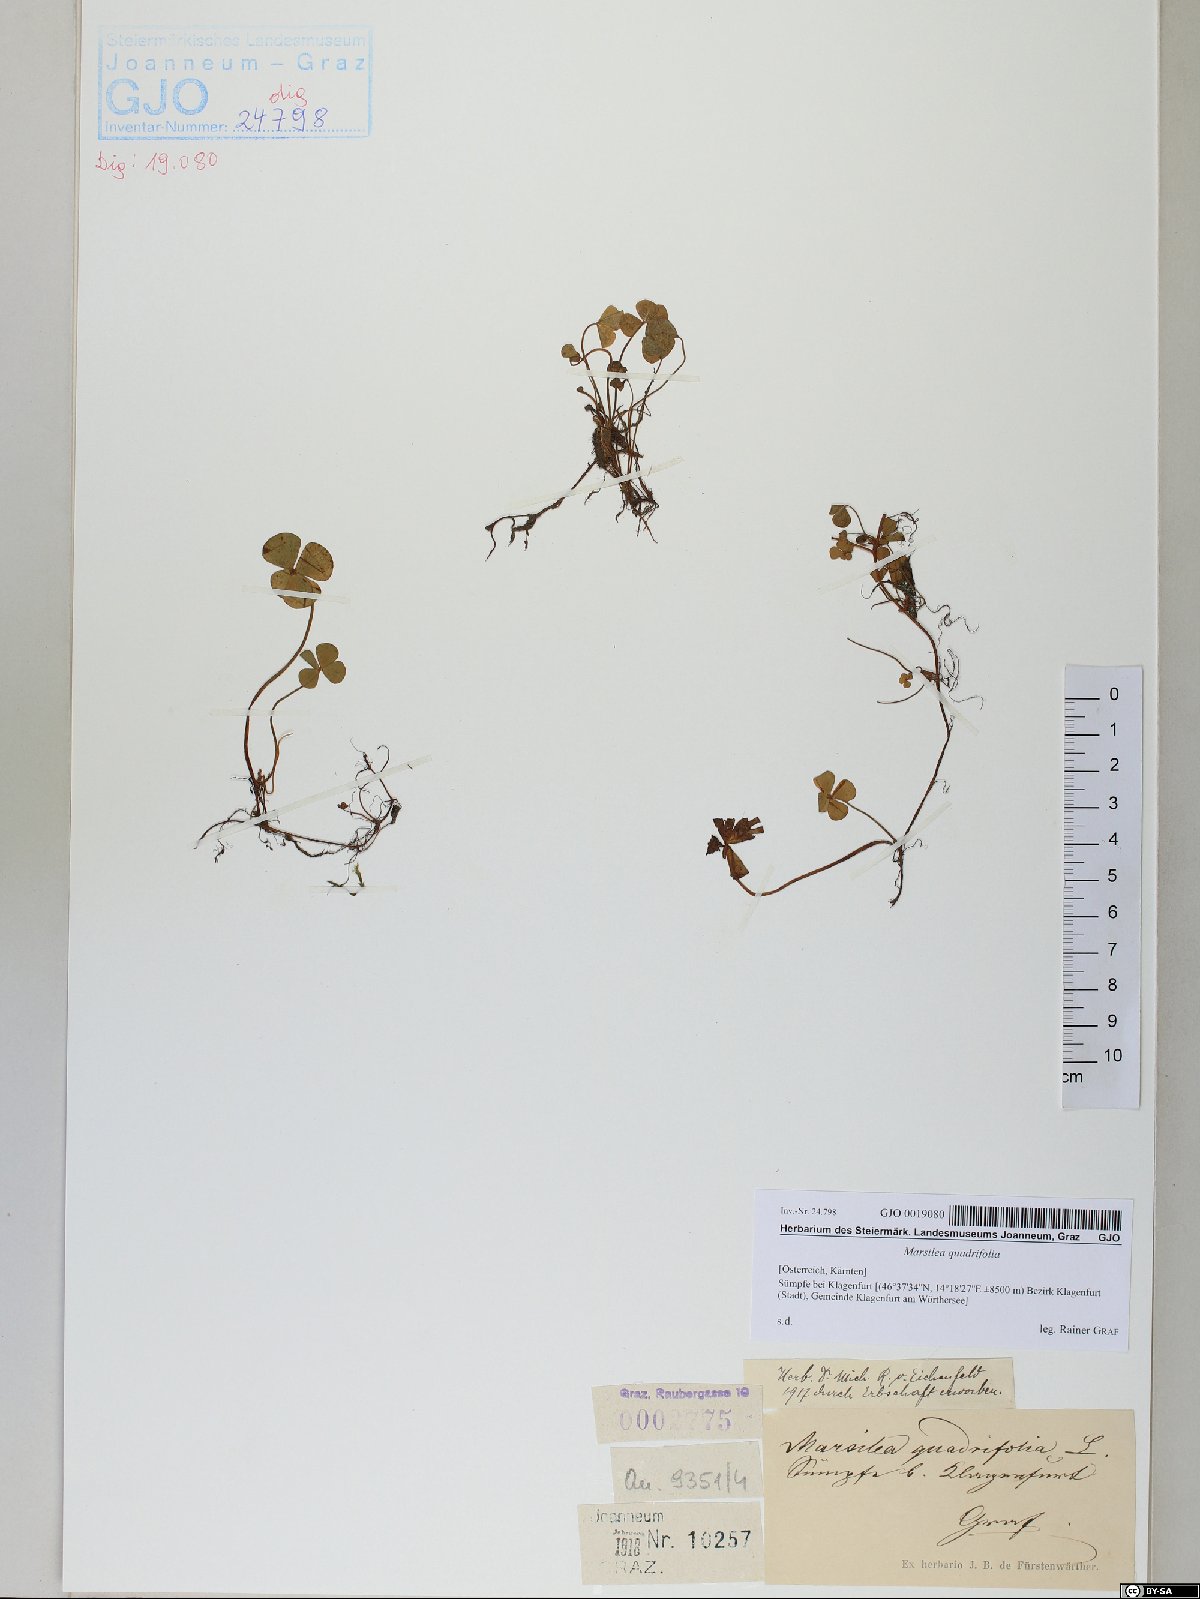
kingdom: Plantae
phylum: Tracheophyta
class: Polypodiopsida
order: Salviniales
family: Marsileaceae
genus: Marsilea
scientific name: Marsilea quadrifolia
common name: Water shamrock
